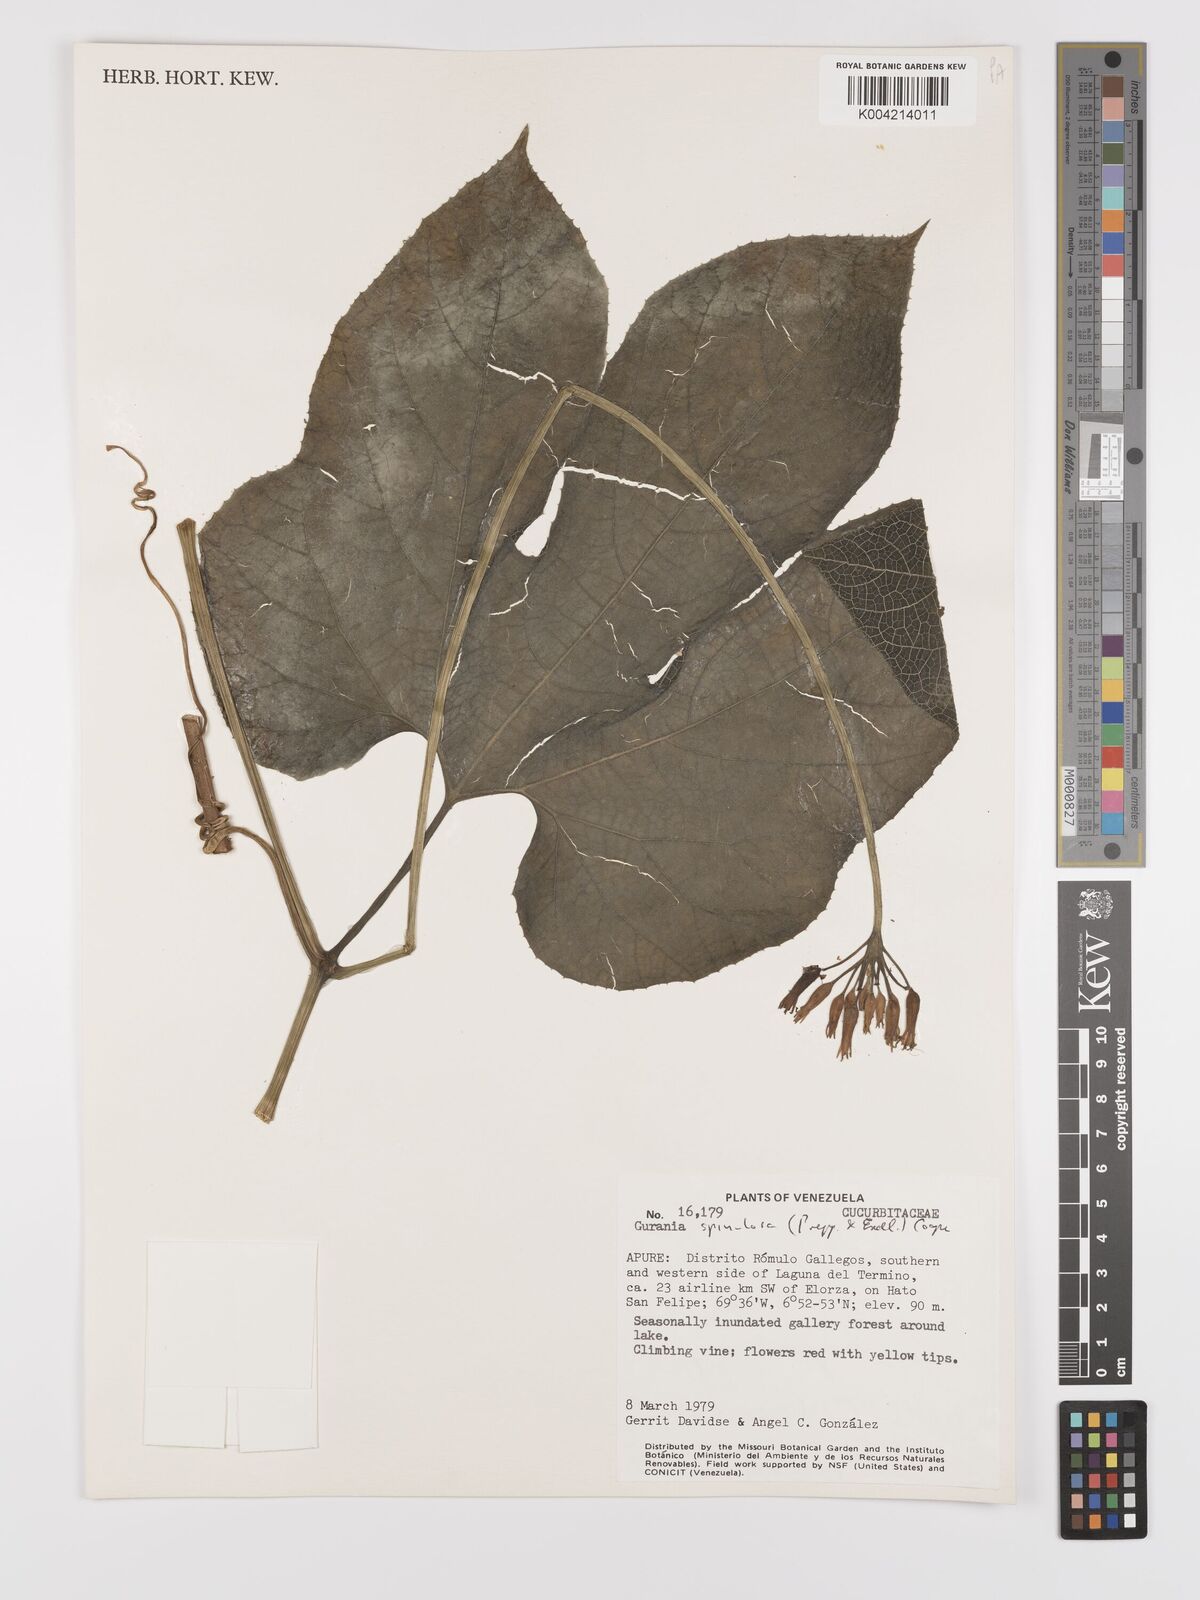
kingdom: Plantae
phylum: Tracheophyta
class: Magnoliopsida
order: Cucurbitales
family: Cucurbitaceae
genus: Gurania
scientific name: Gurania lobata
